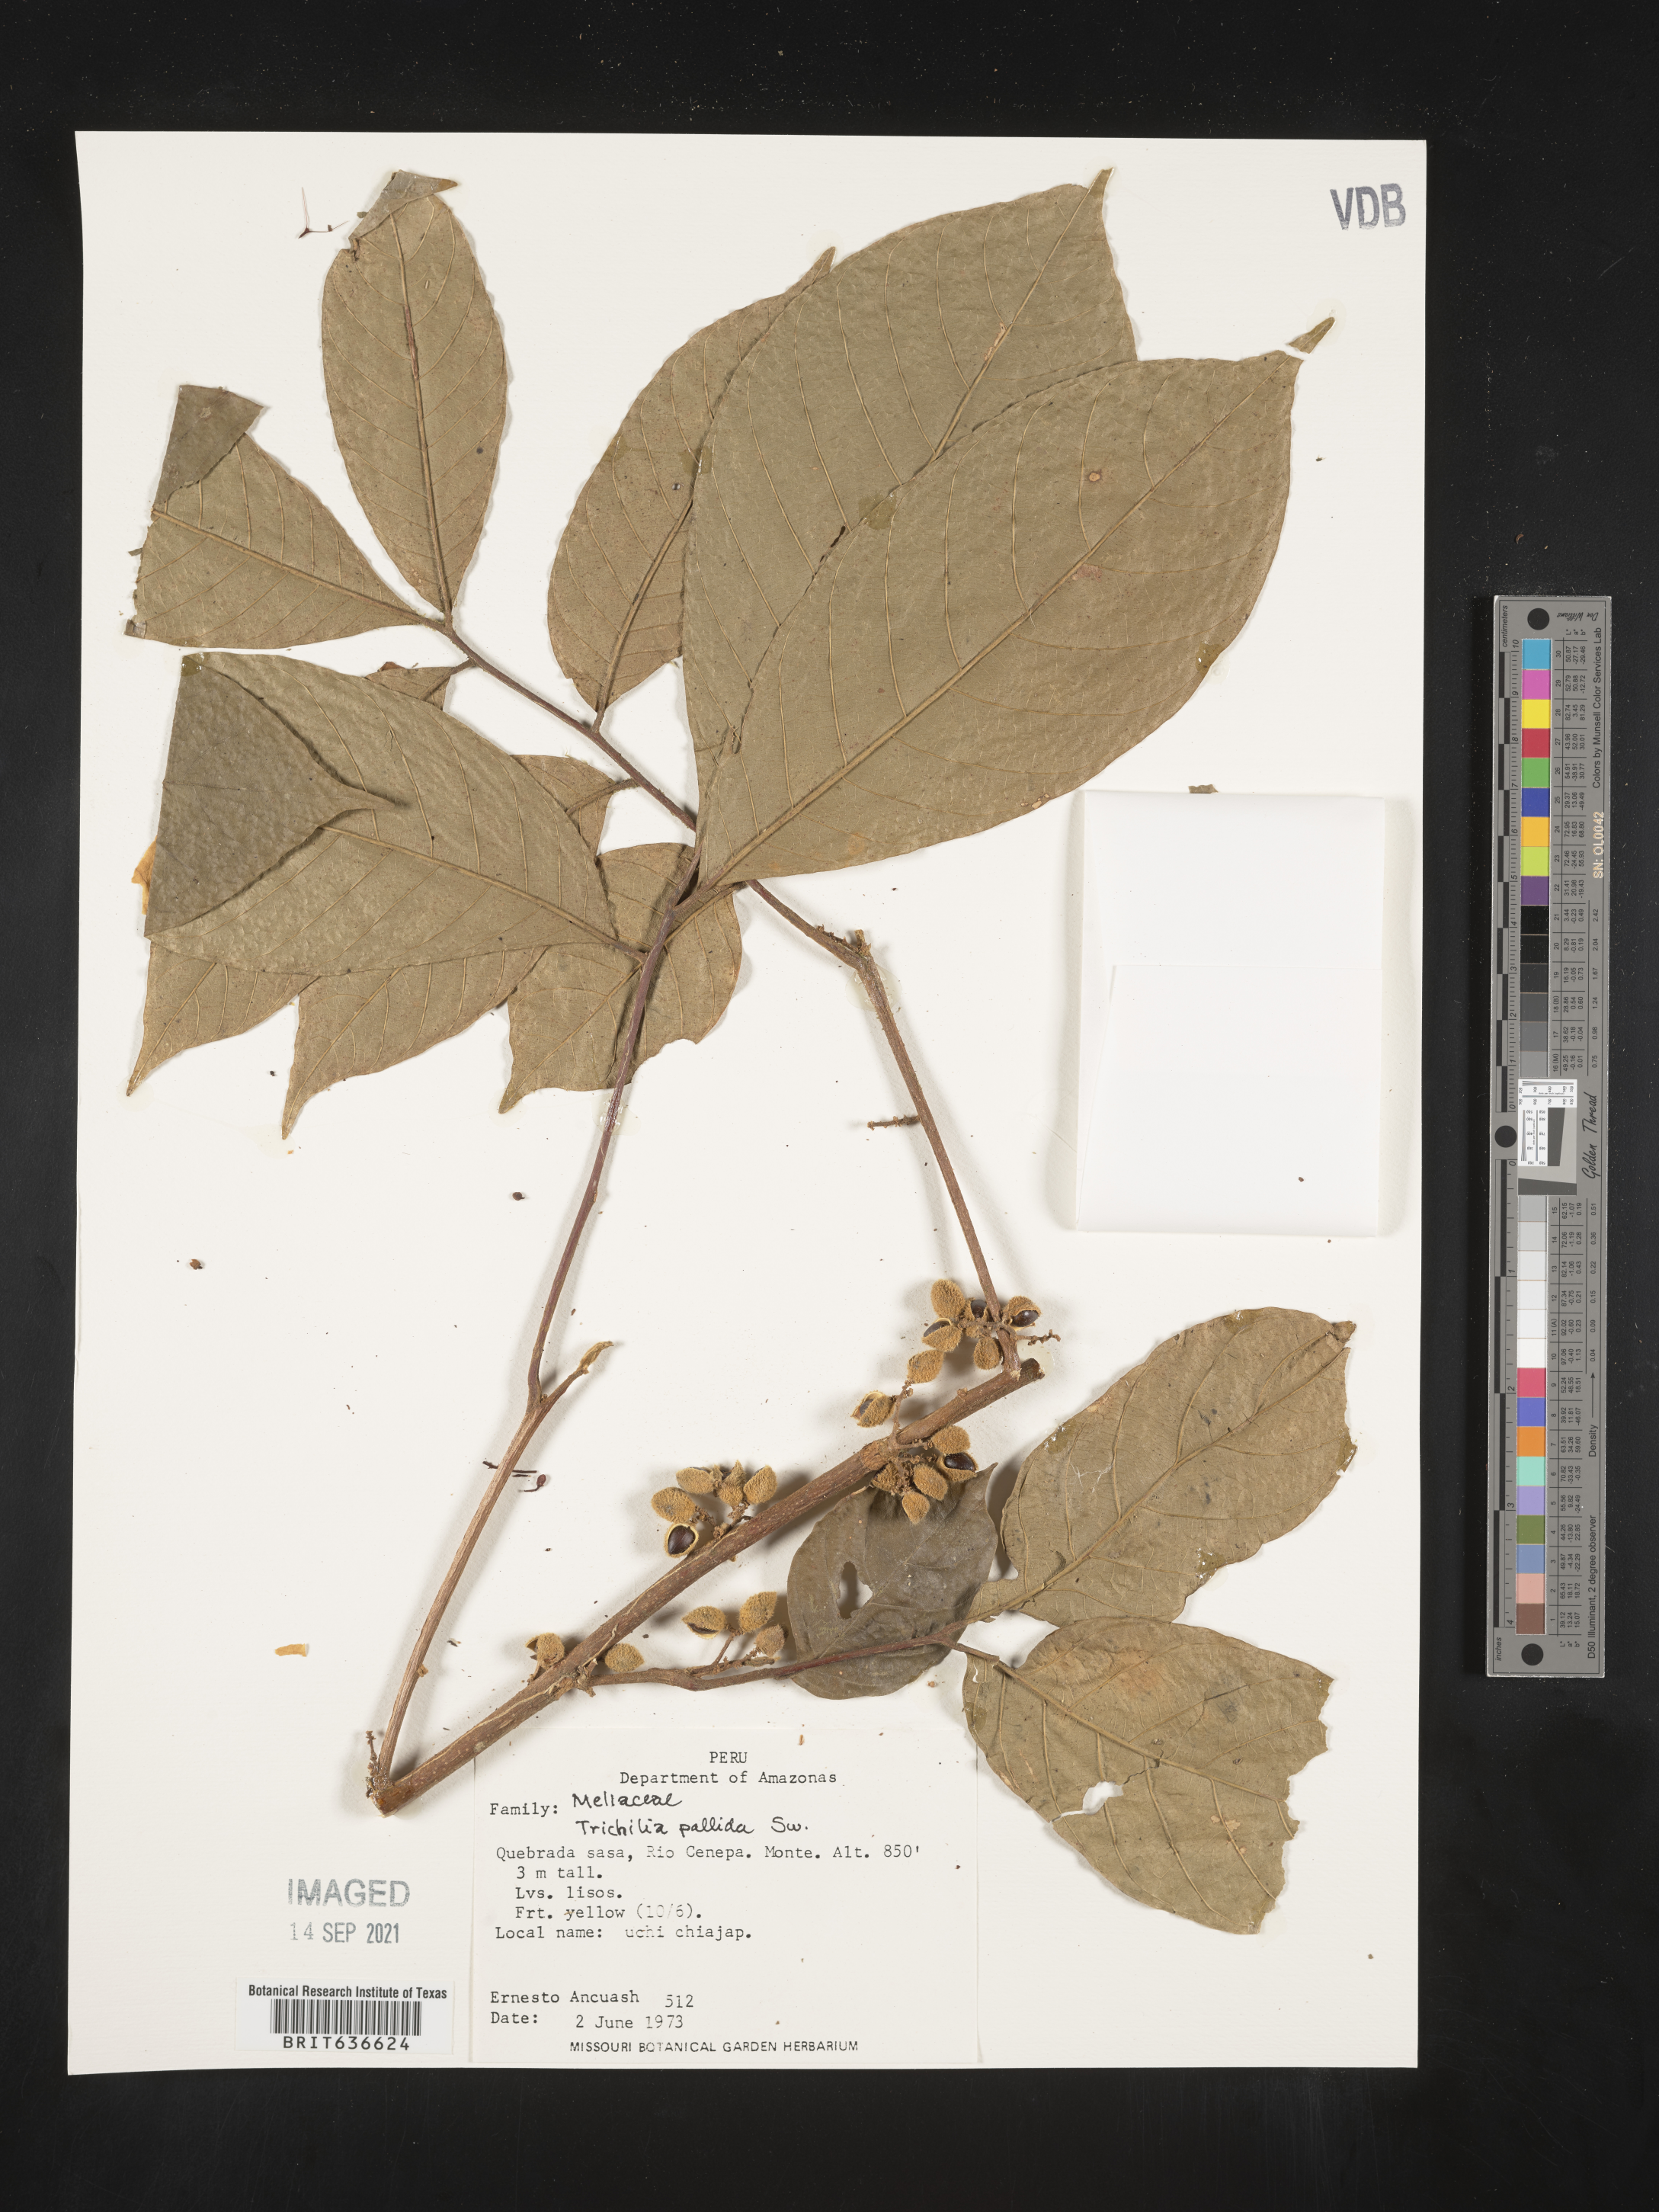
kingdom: Plantae
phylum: Tracheophyta
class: Magnoliopsida
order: Sapindales
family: Meliaceae
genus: Trichilia
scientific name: Trichilia
